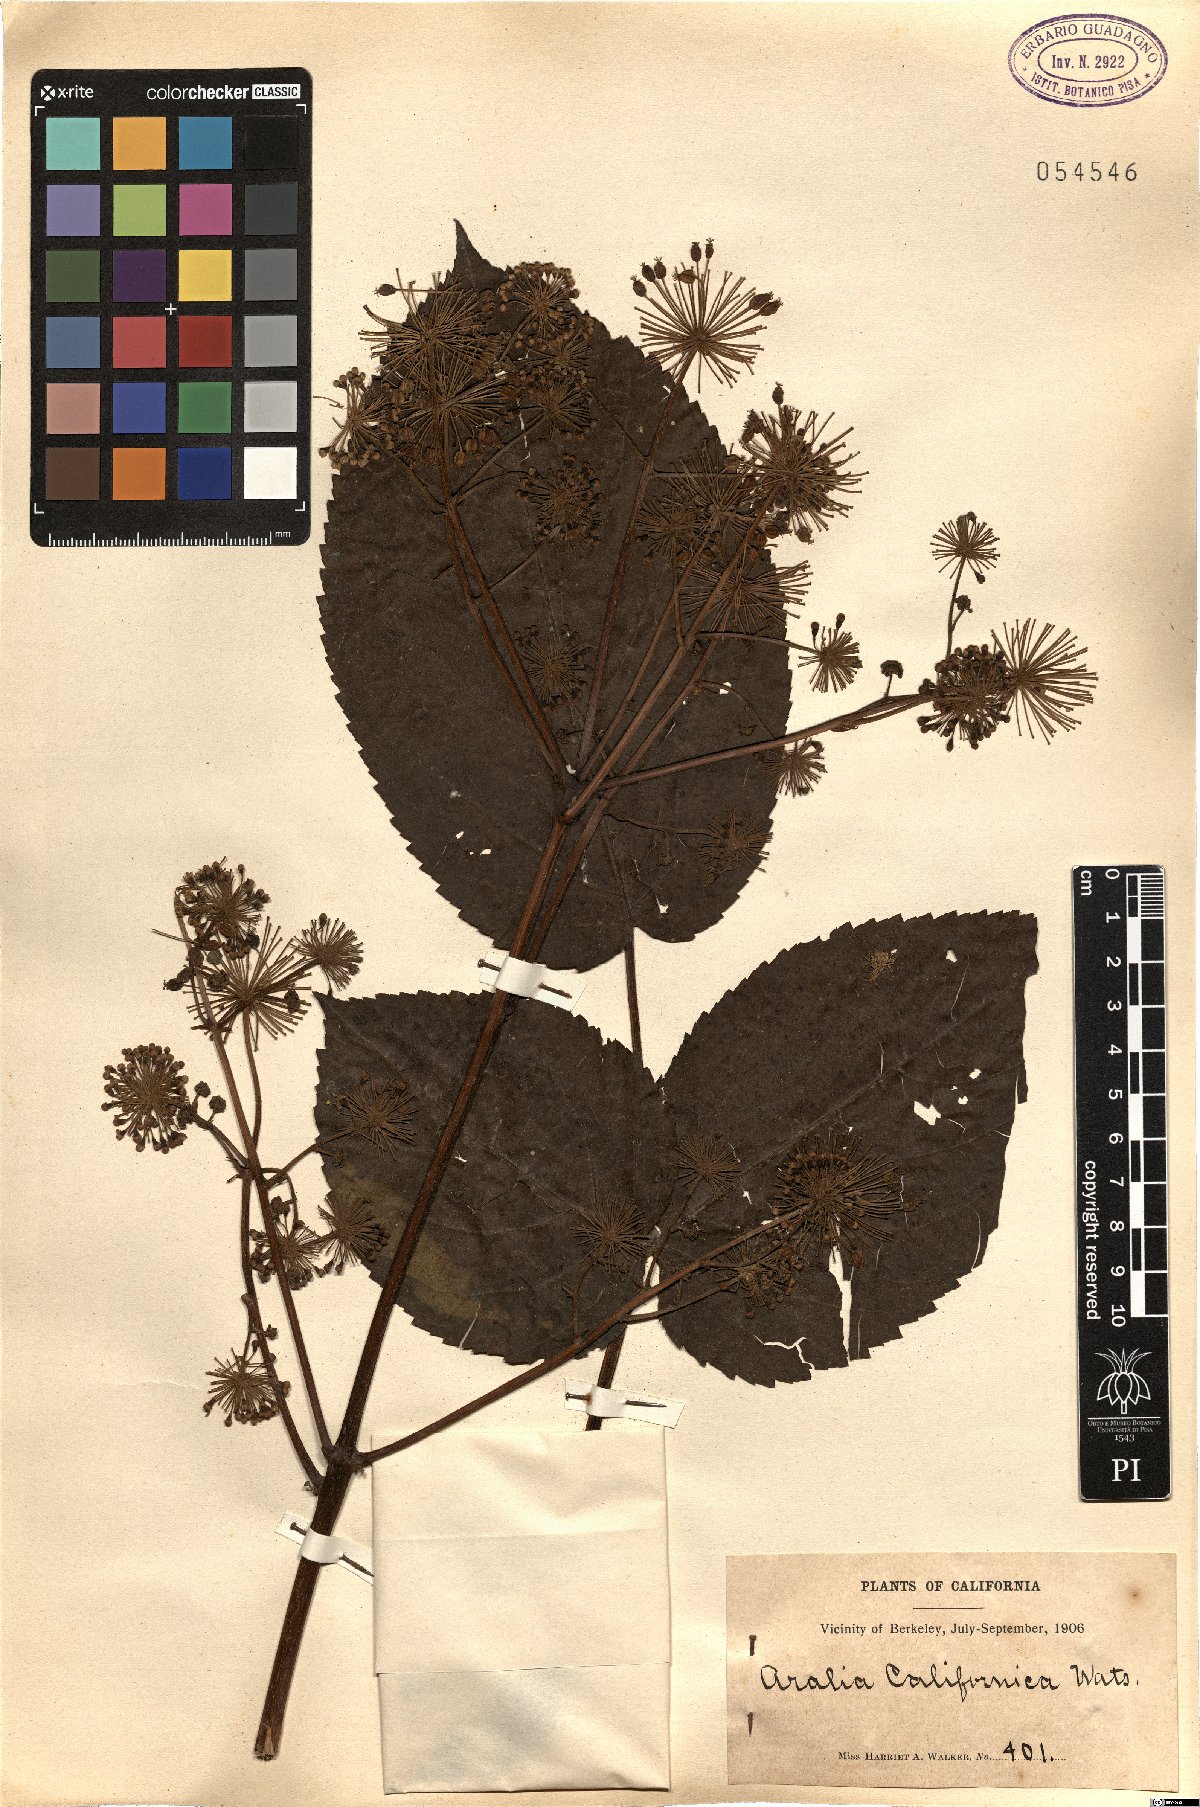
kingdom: Plantae
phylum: Tracheophyta
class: Magnoliopsida
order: Apiales
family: Araliaceae
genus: Aralia
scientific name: Aralia californica
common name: California-ginseng
